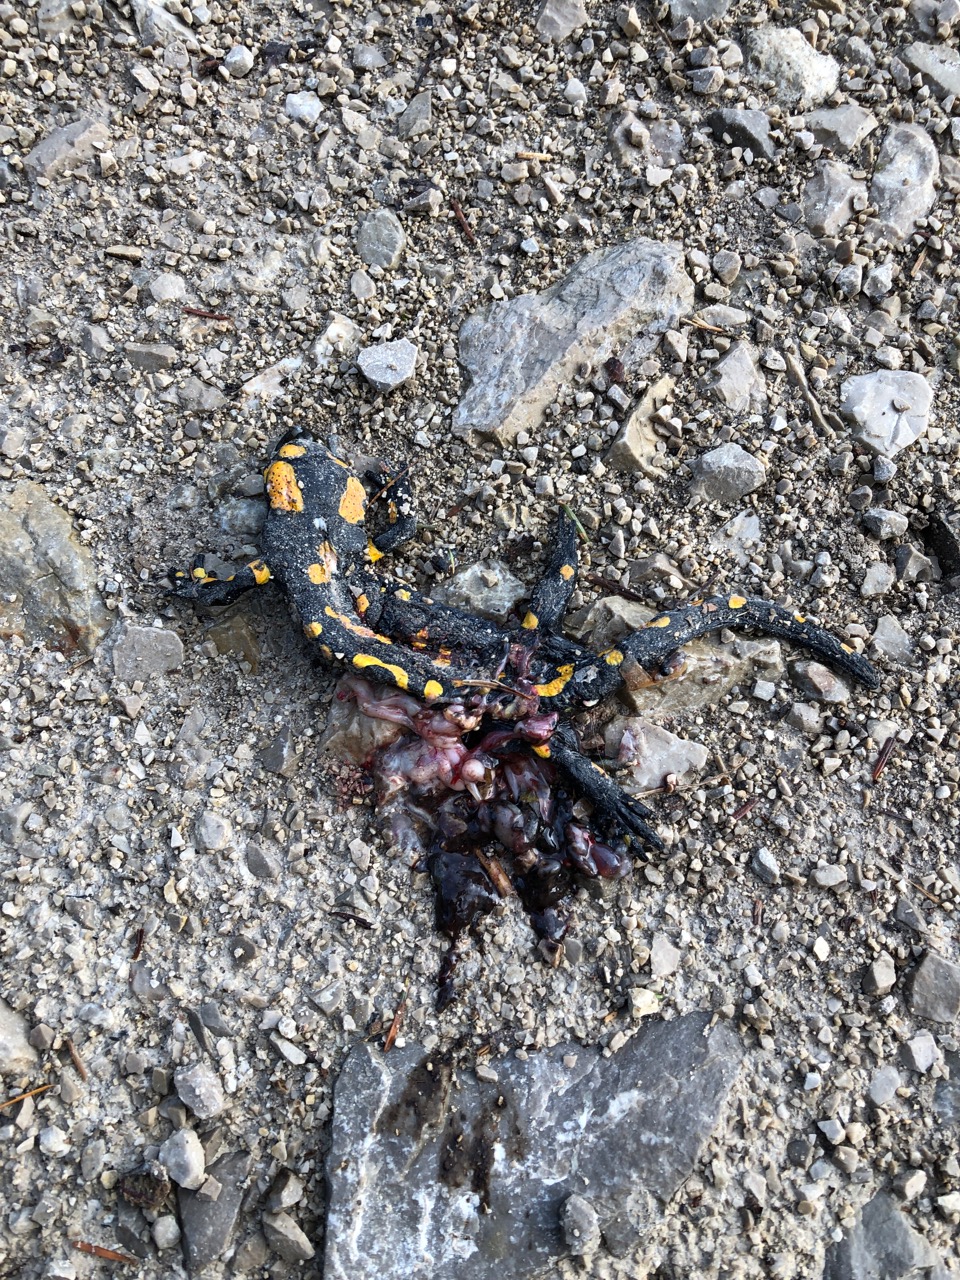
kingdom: Animalia
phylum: Chordata
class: Amphibia
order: Caudata
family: Salamandridae
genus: Salamandra
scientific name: Salamandra salamandra
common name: Fire salamander
